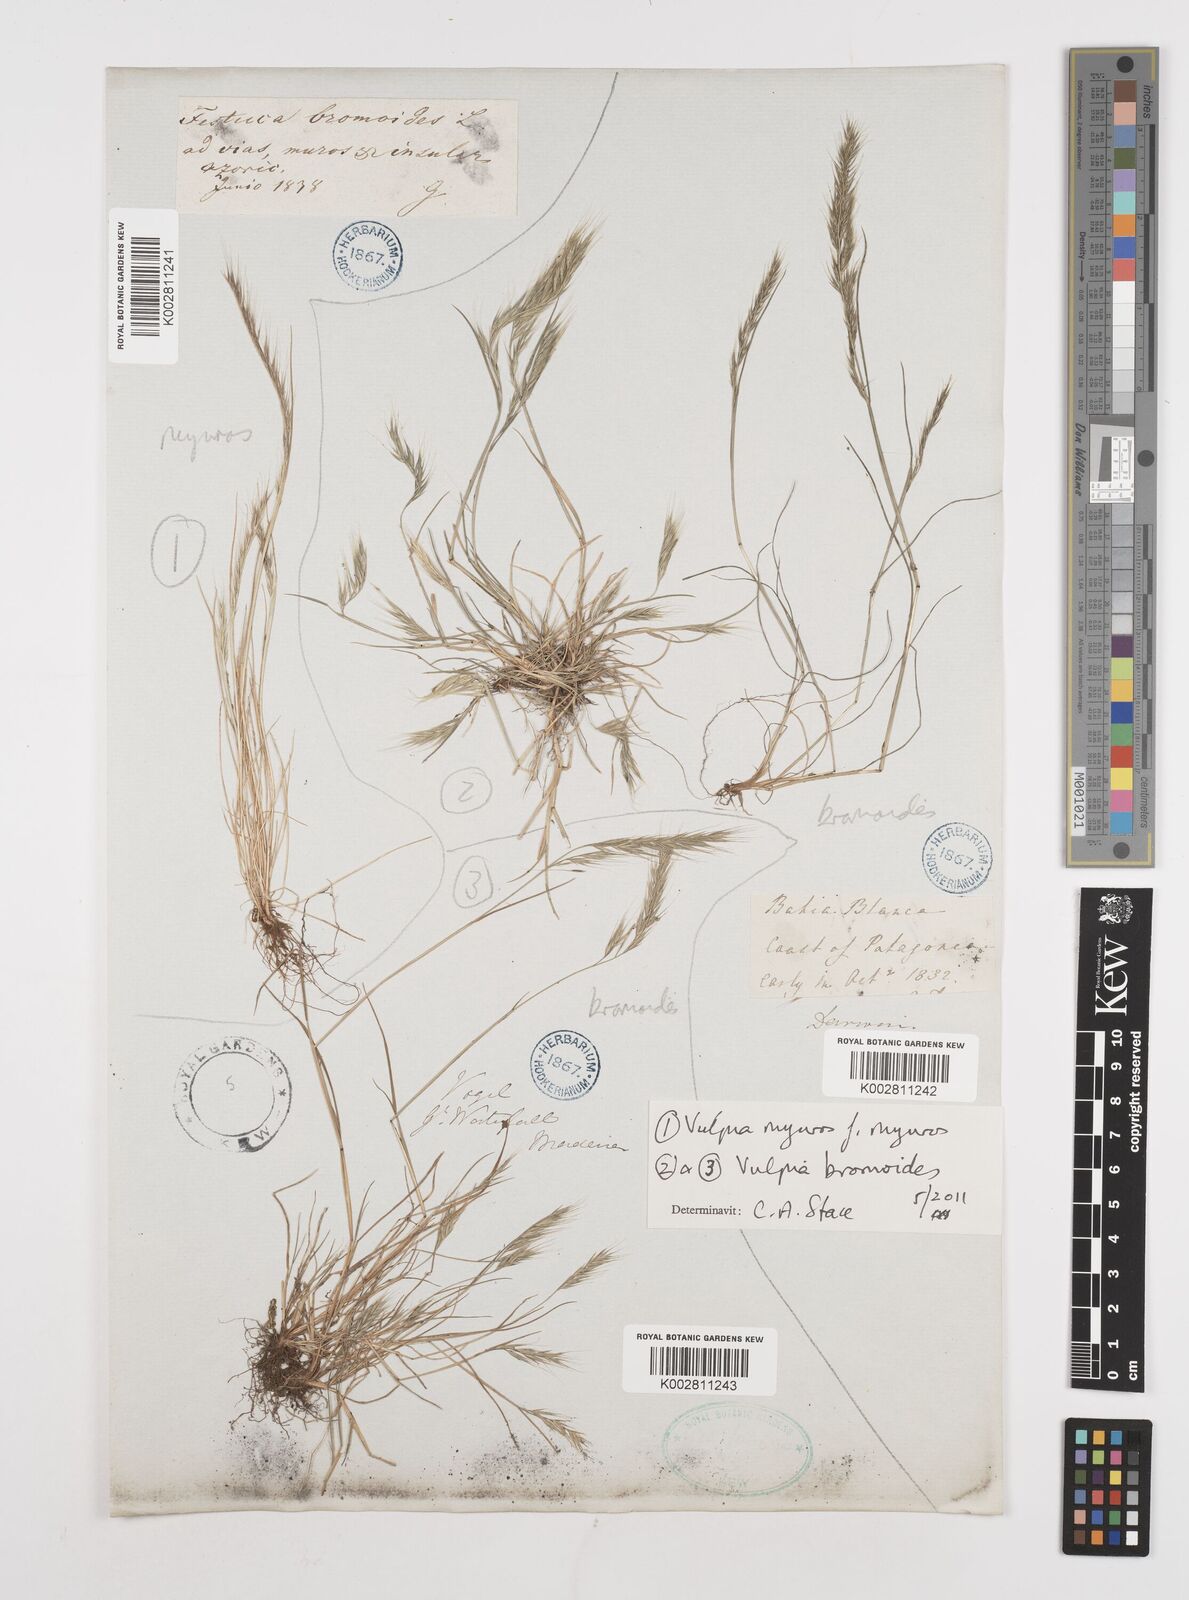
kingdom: Plantae
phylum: Tracheophyta
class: Liliopsida
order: Poales
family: Poaceae
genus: Festuca
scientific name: Festuca
